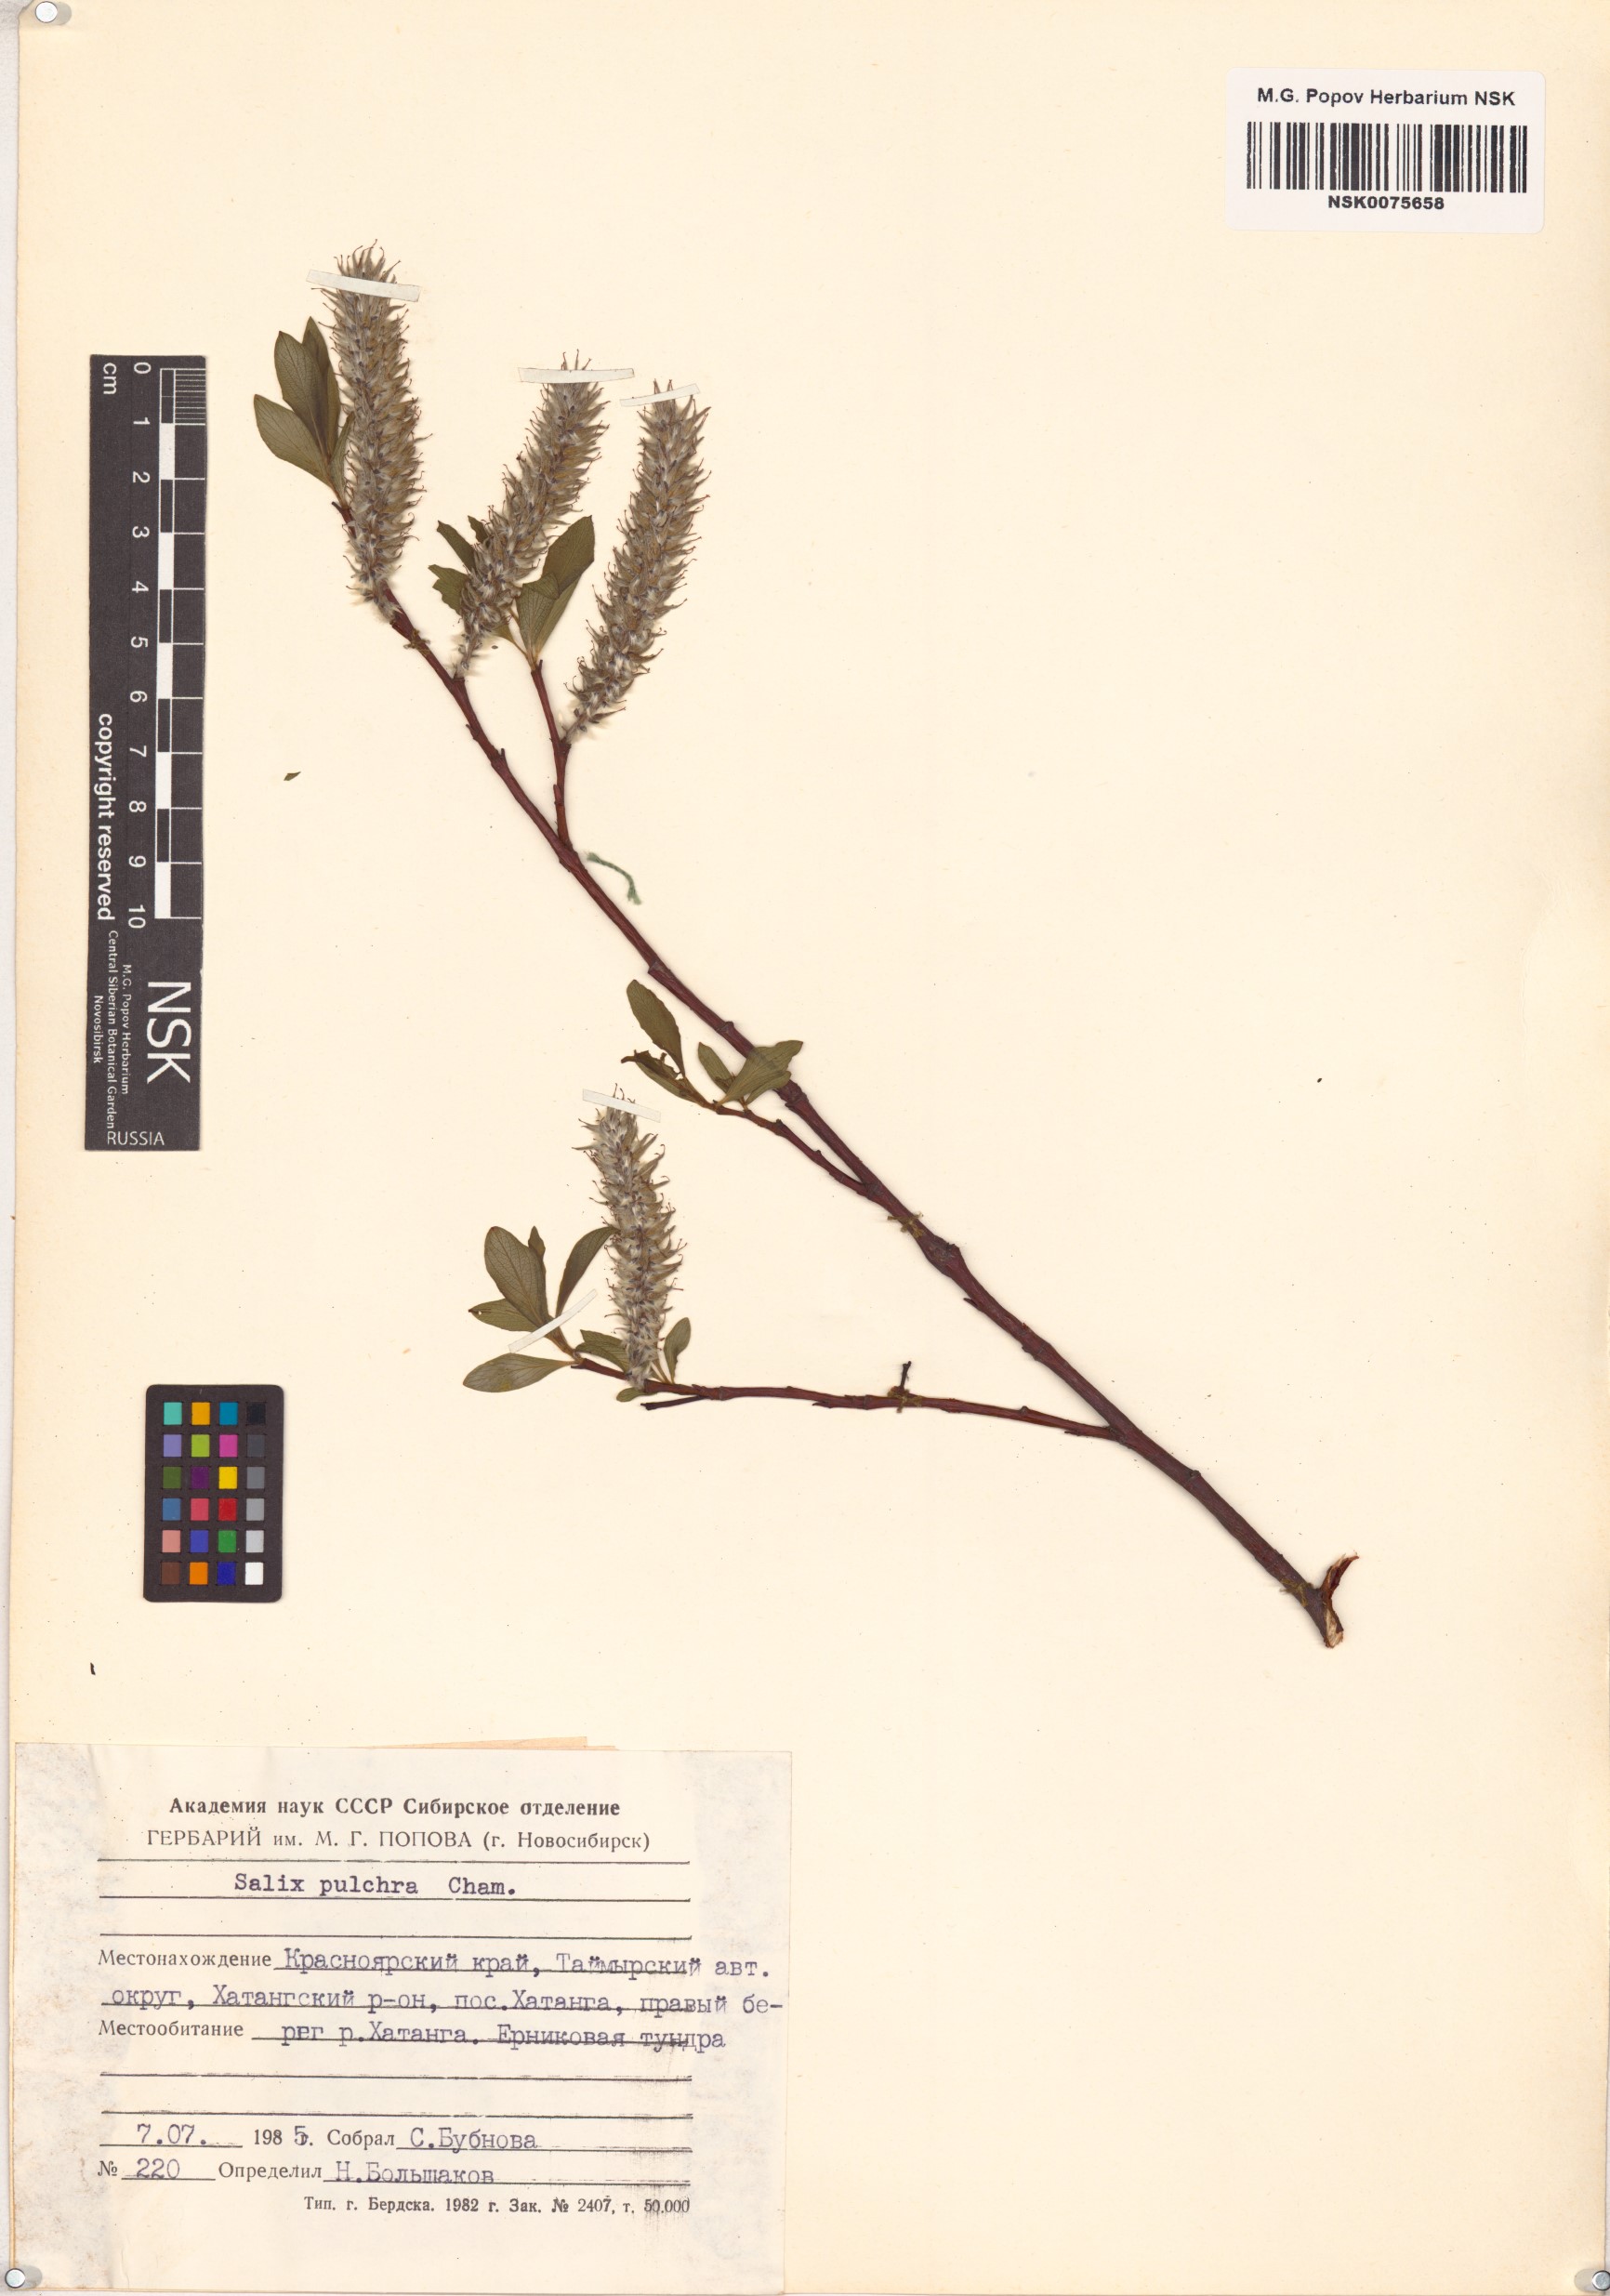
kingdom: Plantae
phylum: Tracheophyta
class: Magnoliopsida
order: Malpighiales
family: Salicaceae
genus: Salix
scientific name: Salix pulchra
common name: Diamond-leaved willow
